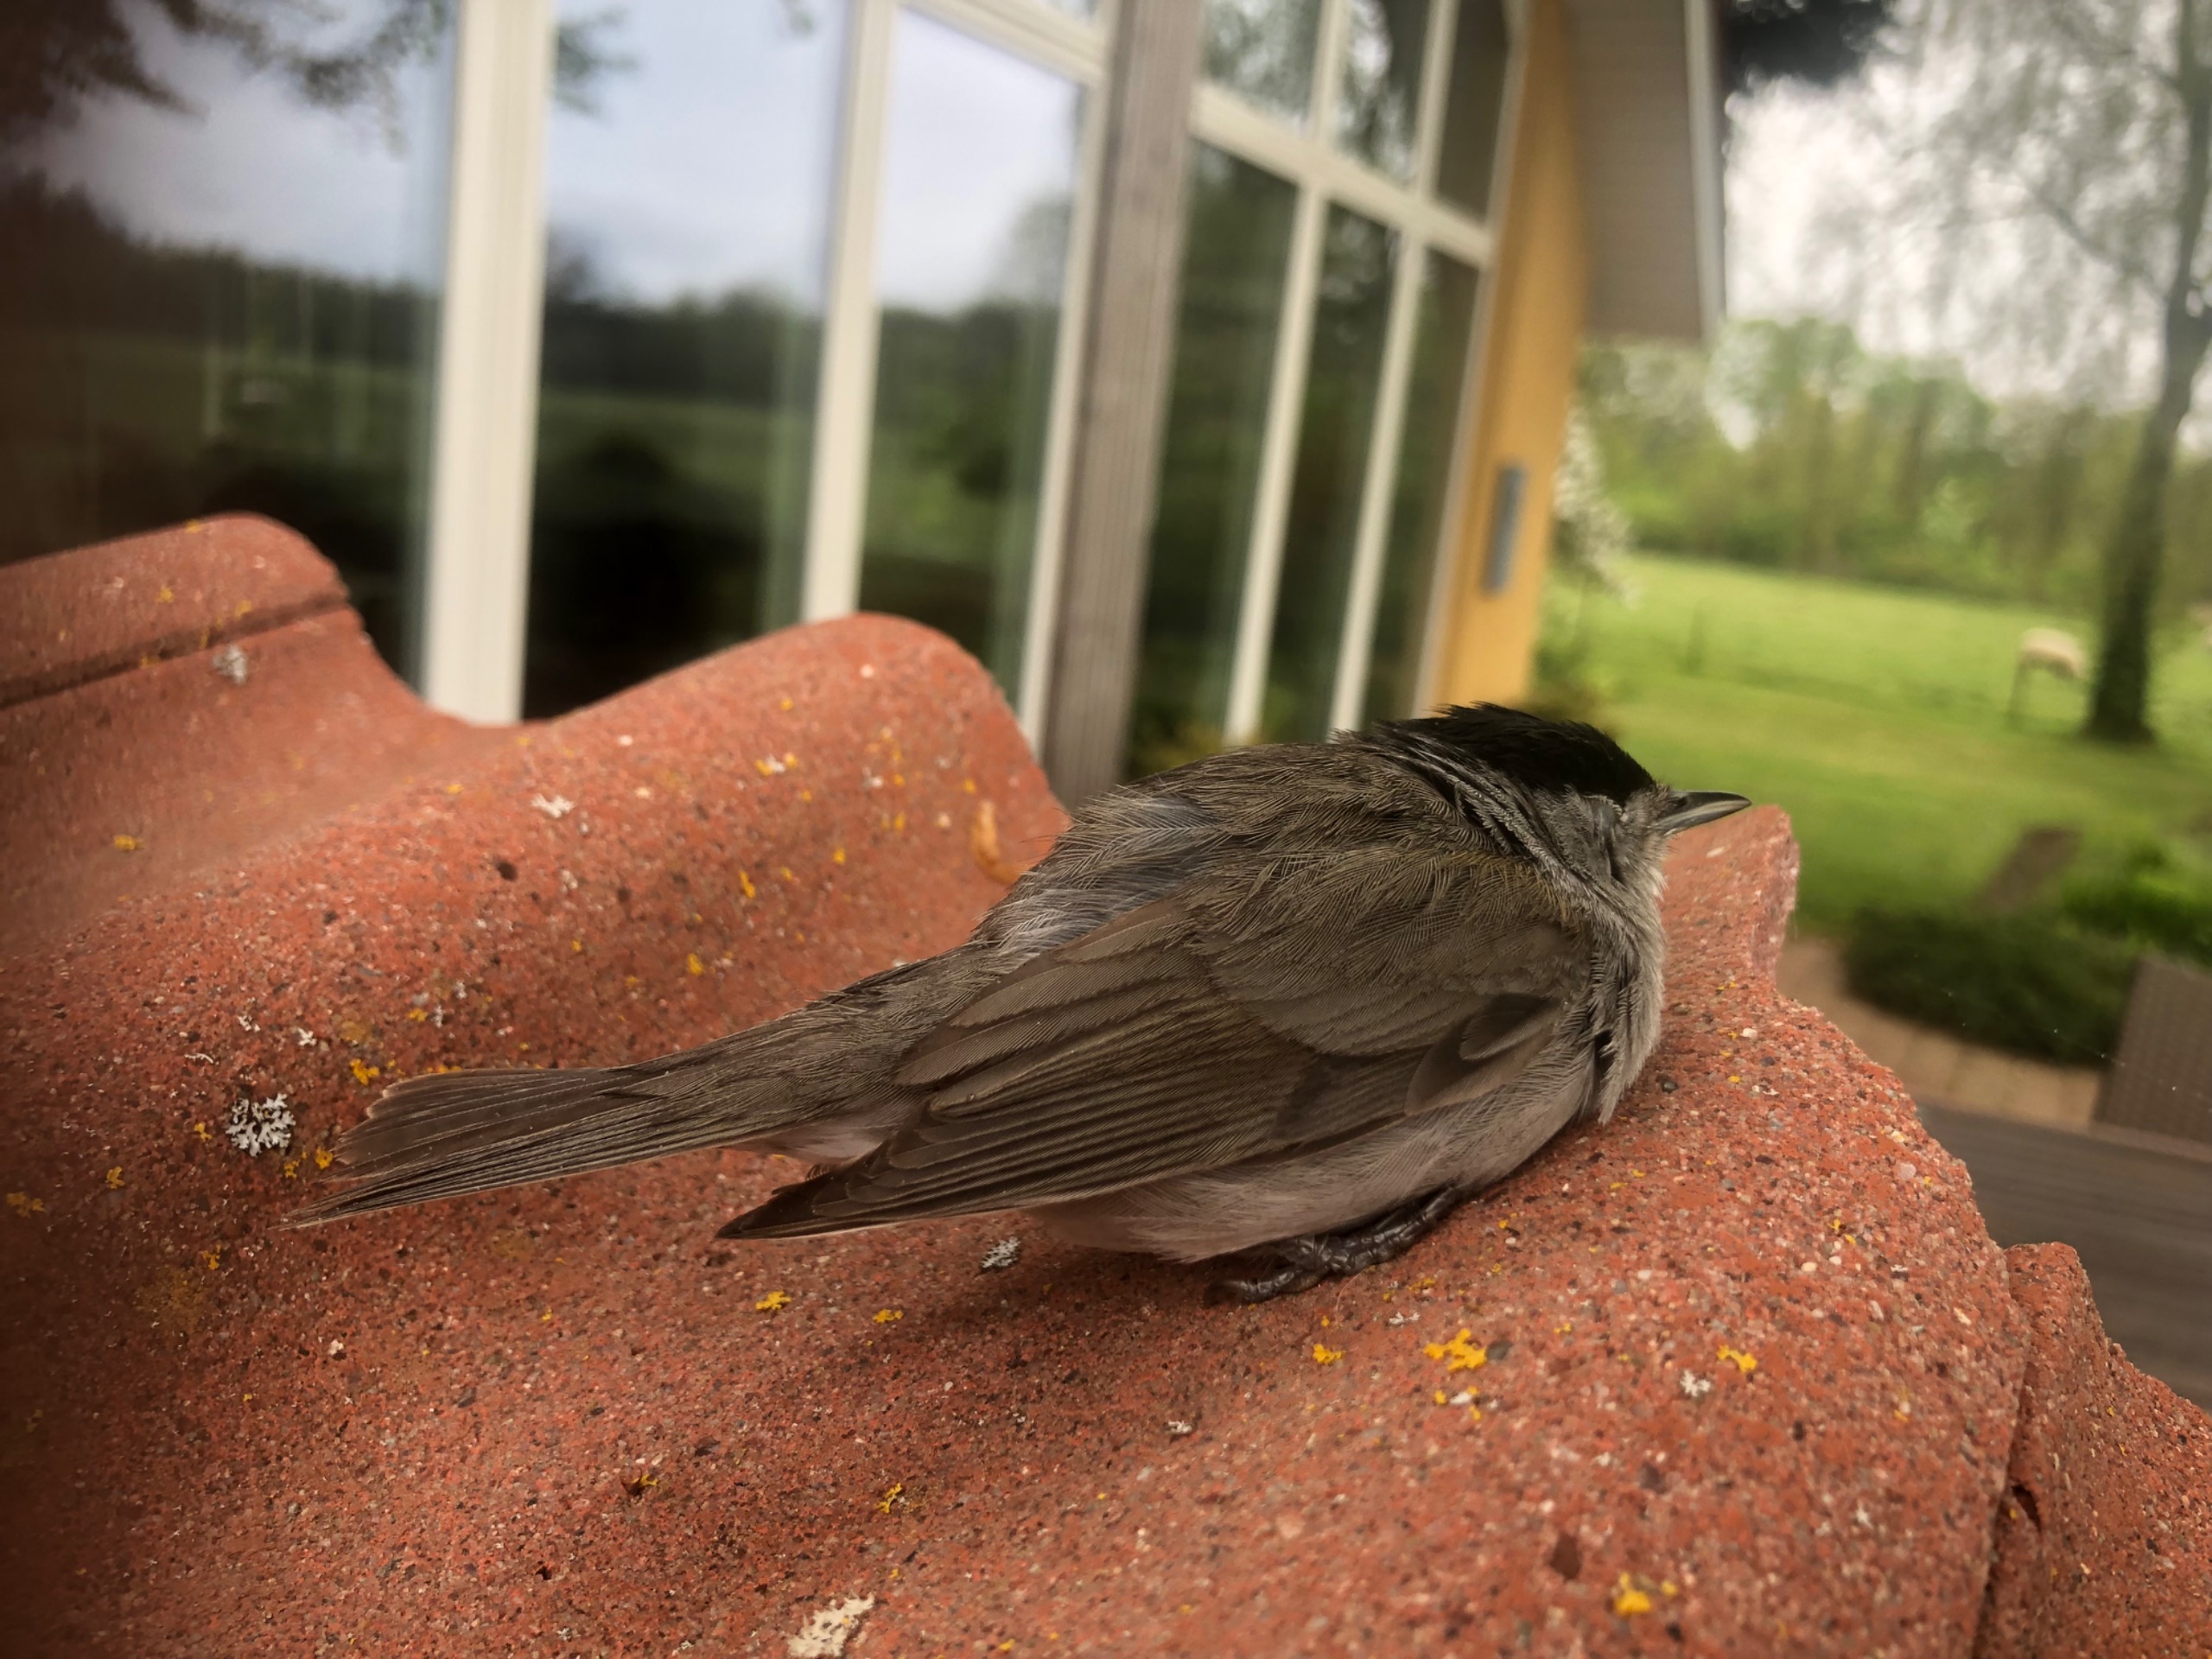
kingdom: Animalia
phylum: Chordata
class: Aves
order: Passeriformes
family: Sylviidae
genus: Sylvia
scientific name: Sylvia atricapilla
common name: Munk
